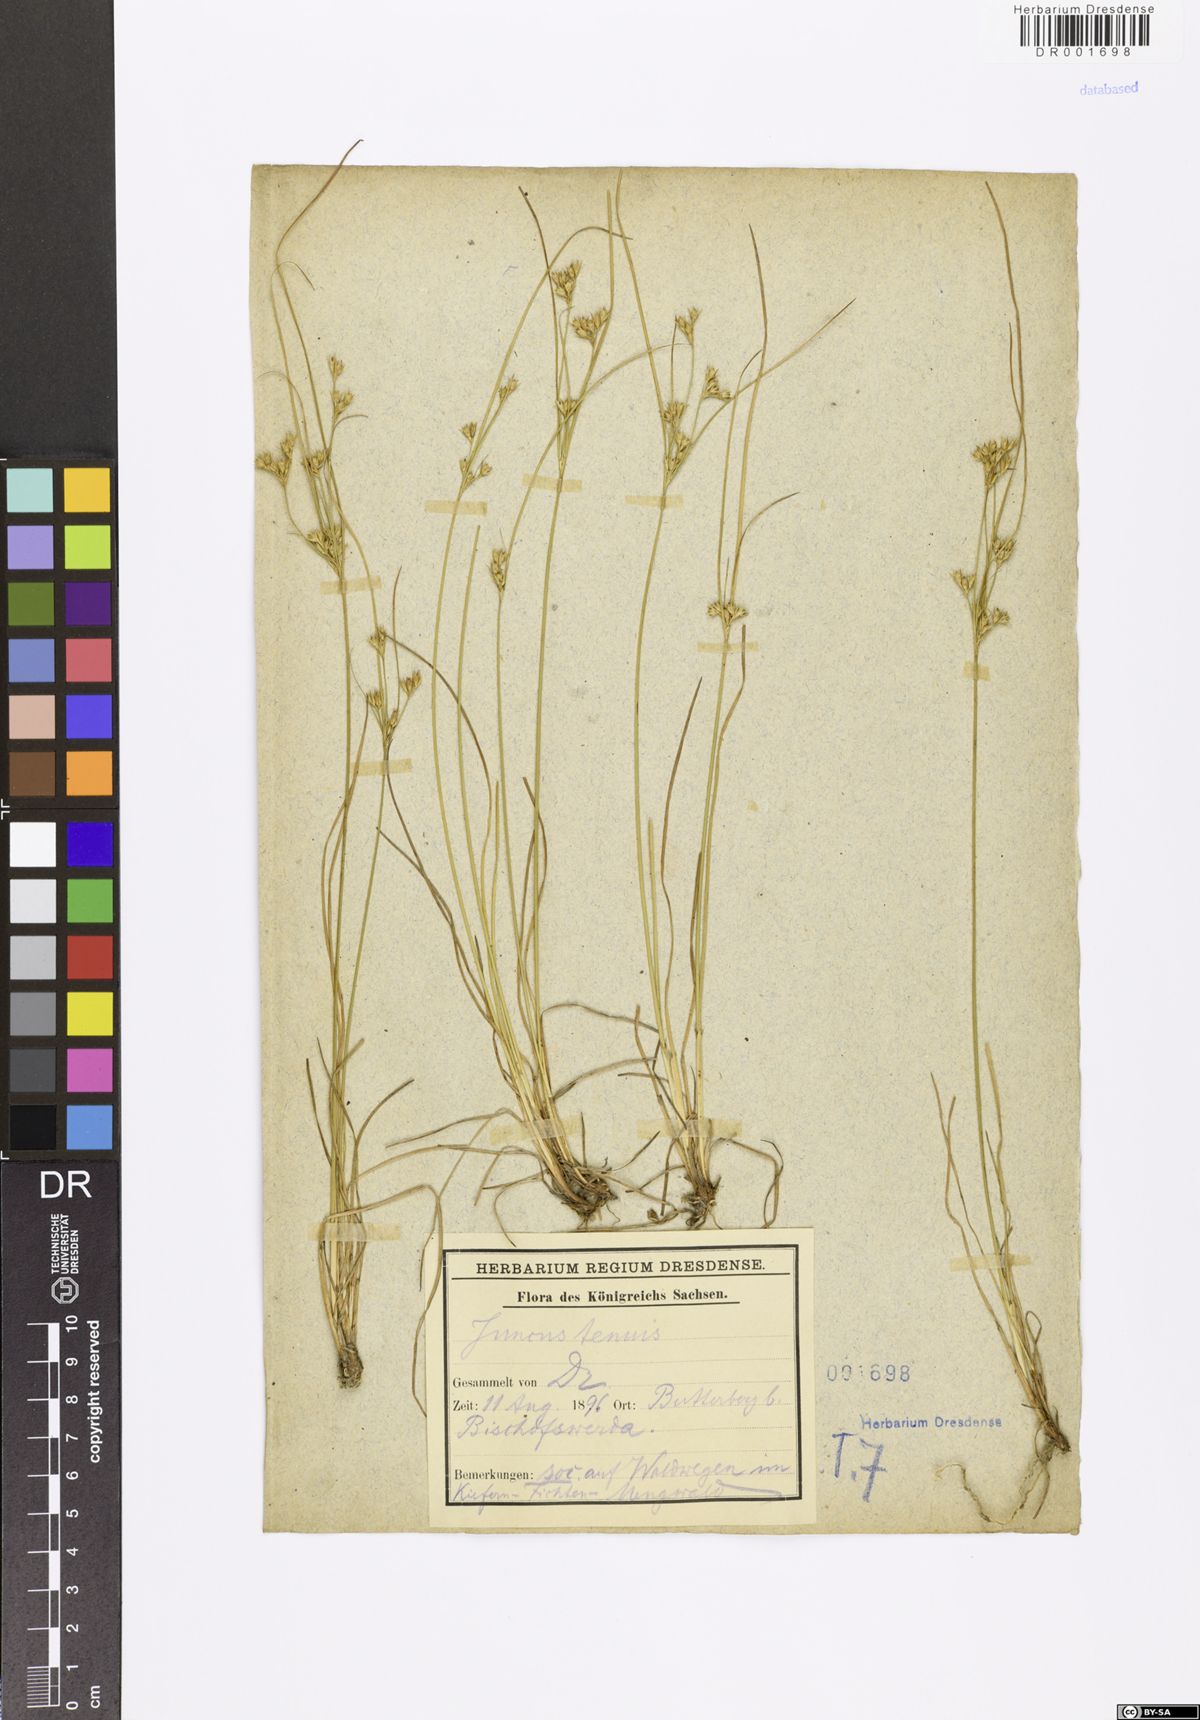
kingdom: Plantae
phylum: Tracheophyta
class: Liliopsida
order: Poales
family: Juncaceae
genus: Juncus
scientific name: Juncus tenuis
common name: Slender rush
